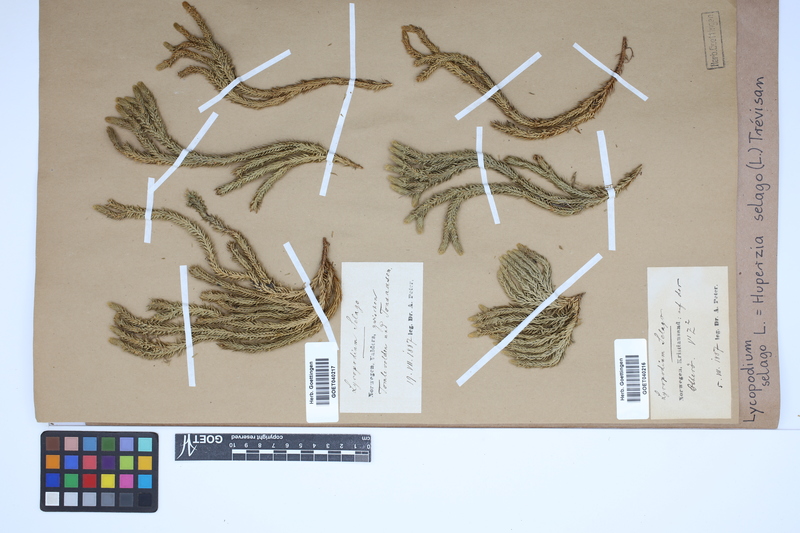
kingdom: Plantae
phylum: Tracheophyta
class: Lycopodiopsida
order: Lycopodiales
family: Lycopodiaceae
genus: Huperzia
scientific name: Huperzia selago
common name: Northern firmoss
